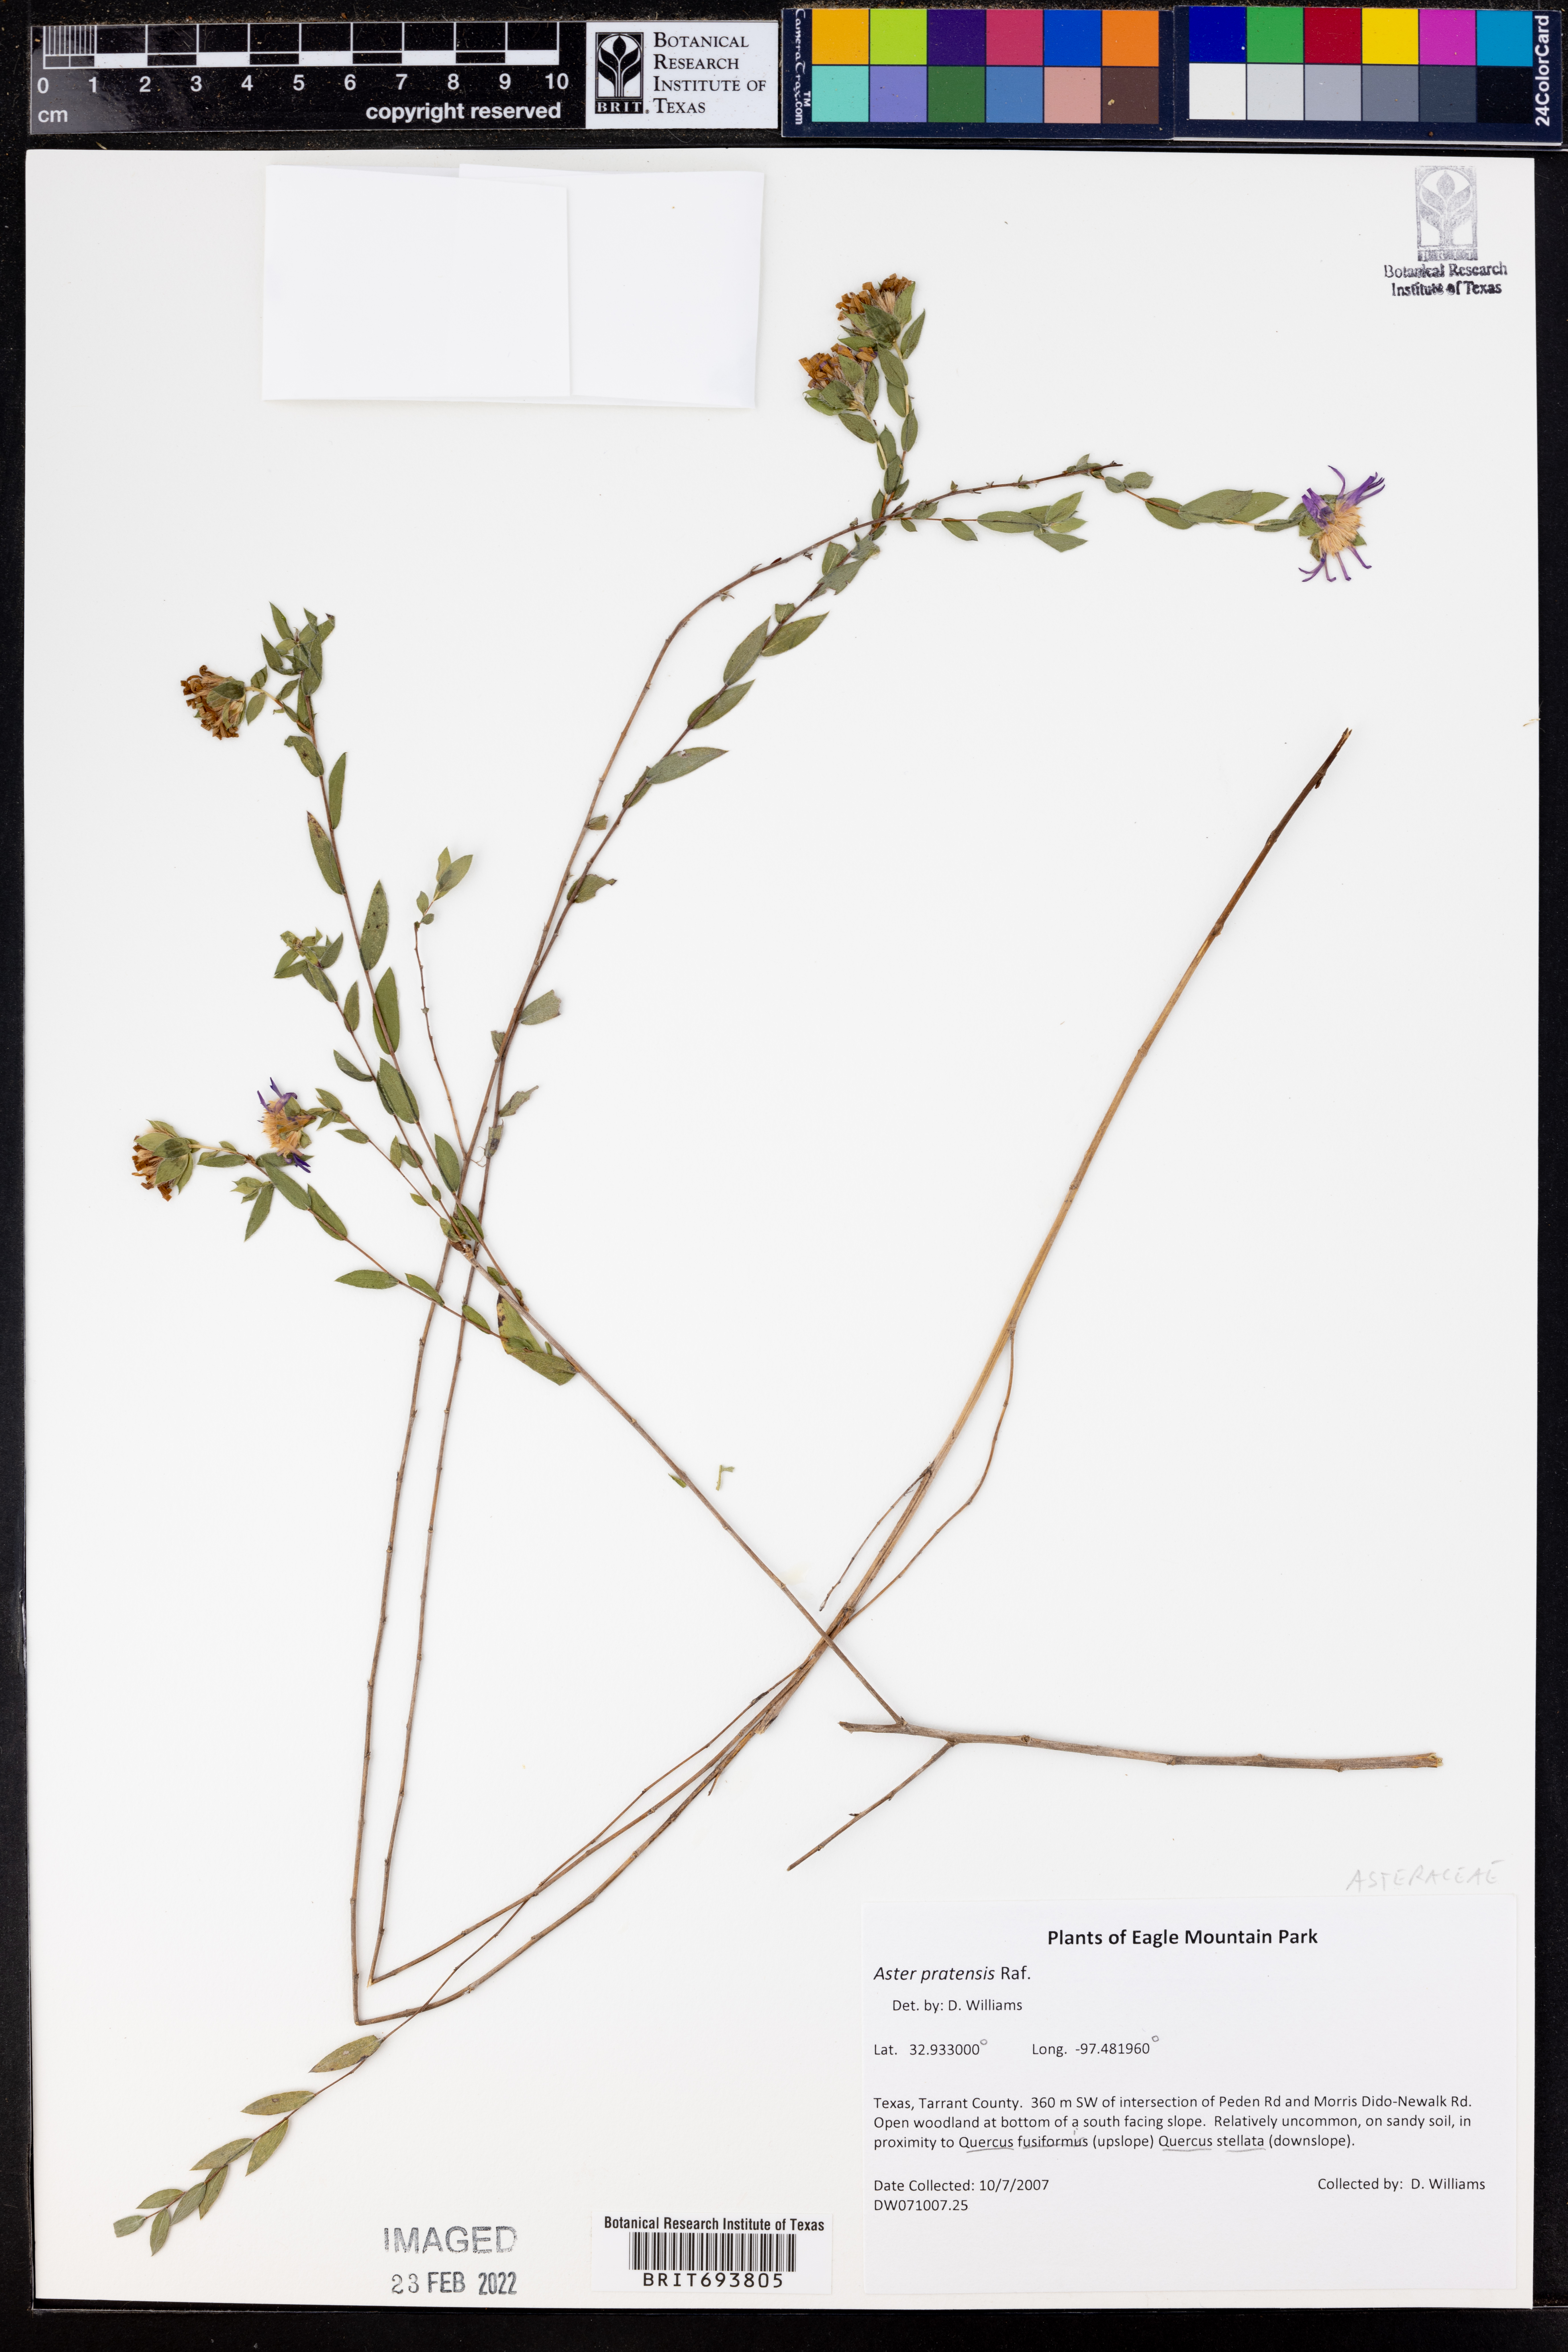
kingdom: Plantae
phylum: Tracheophyta
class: Magnoliopsida
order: Asterales
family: Asteraceae
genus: Symphyotrichum
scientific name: Symphyotrichum pratense
